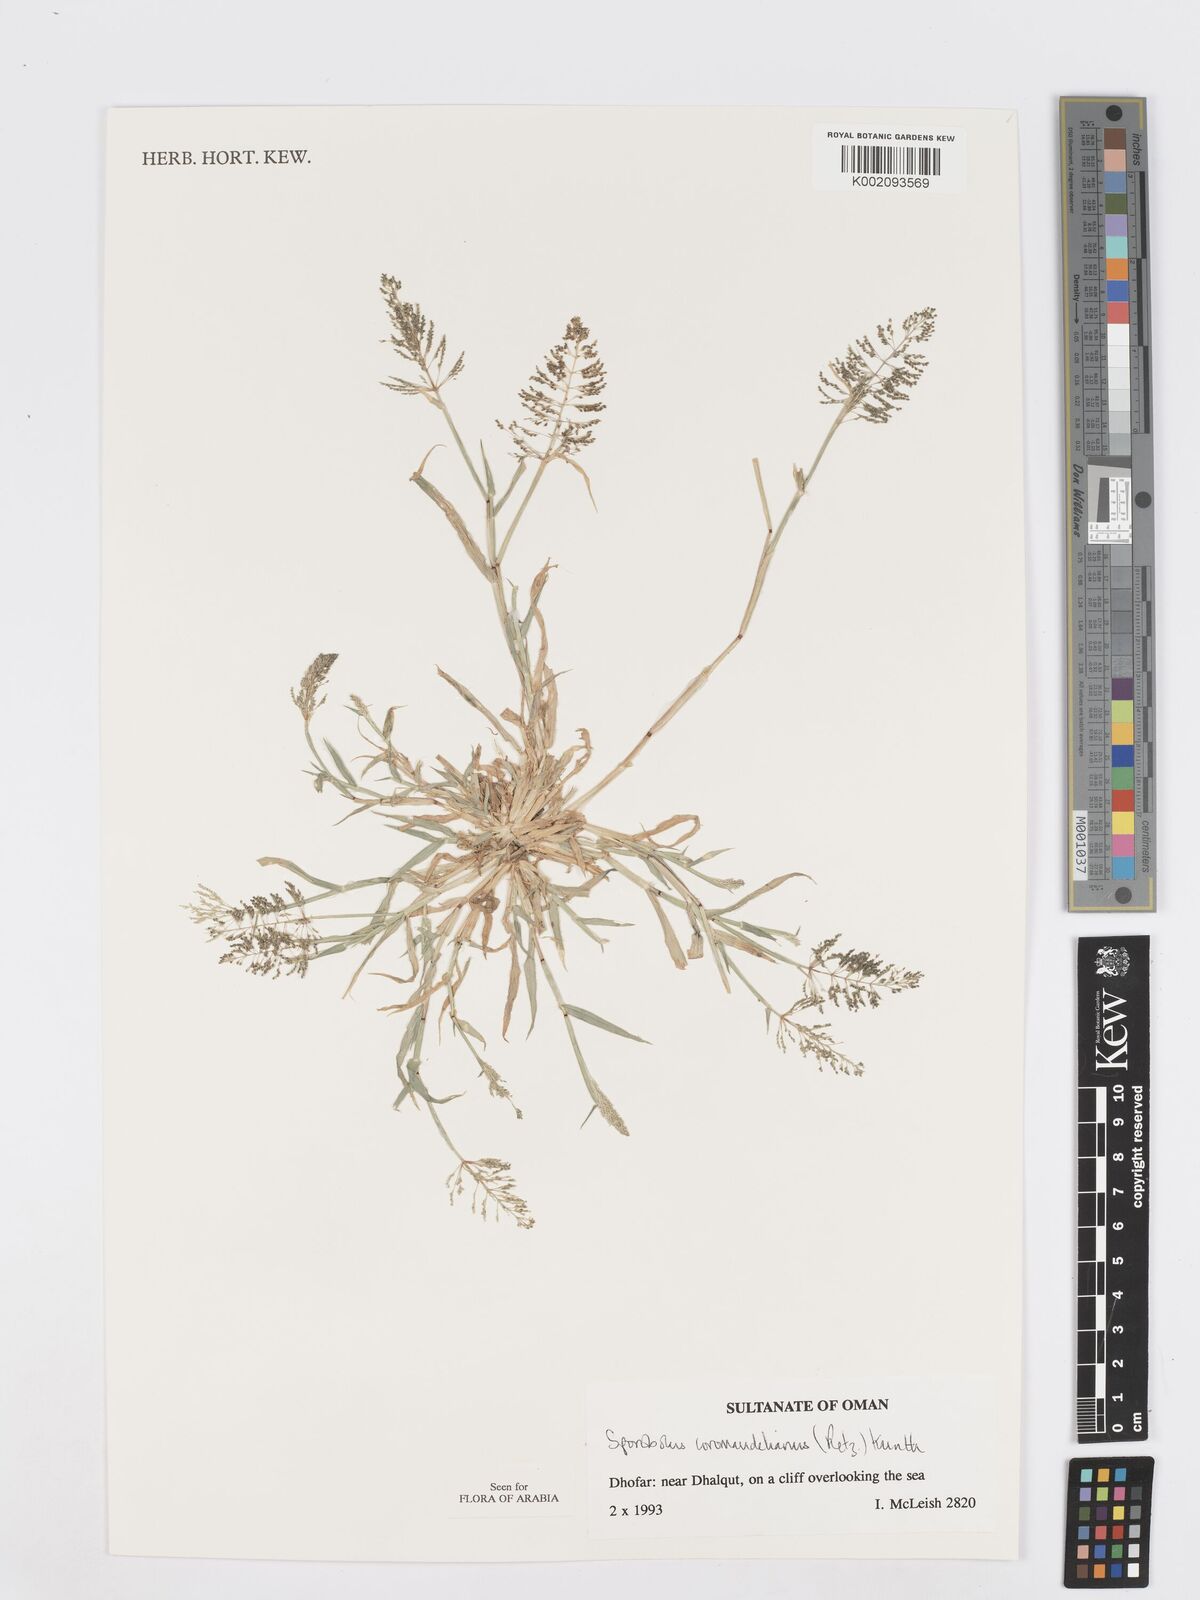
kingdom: Plantae
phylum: Tracheophyta
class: Liliopsida
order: Poales
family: Poaceae
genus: Sporobolus
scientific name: Sporobolus coromandelianus
